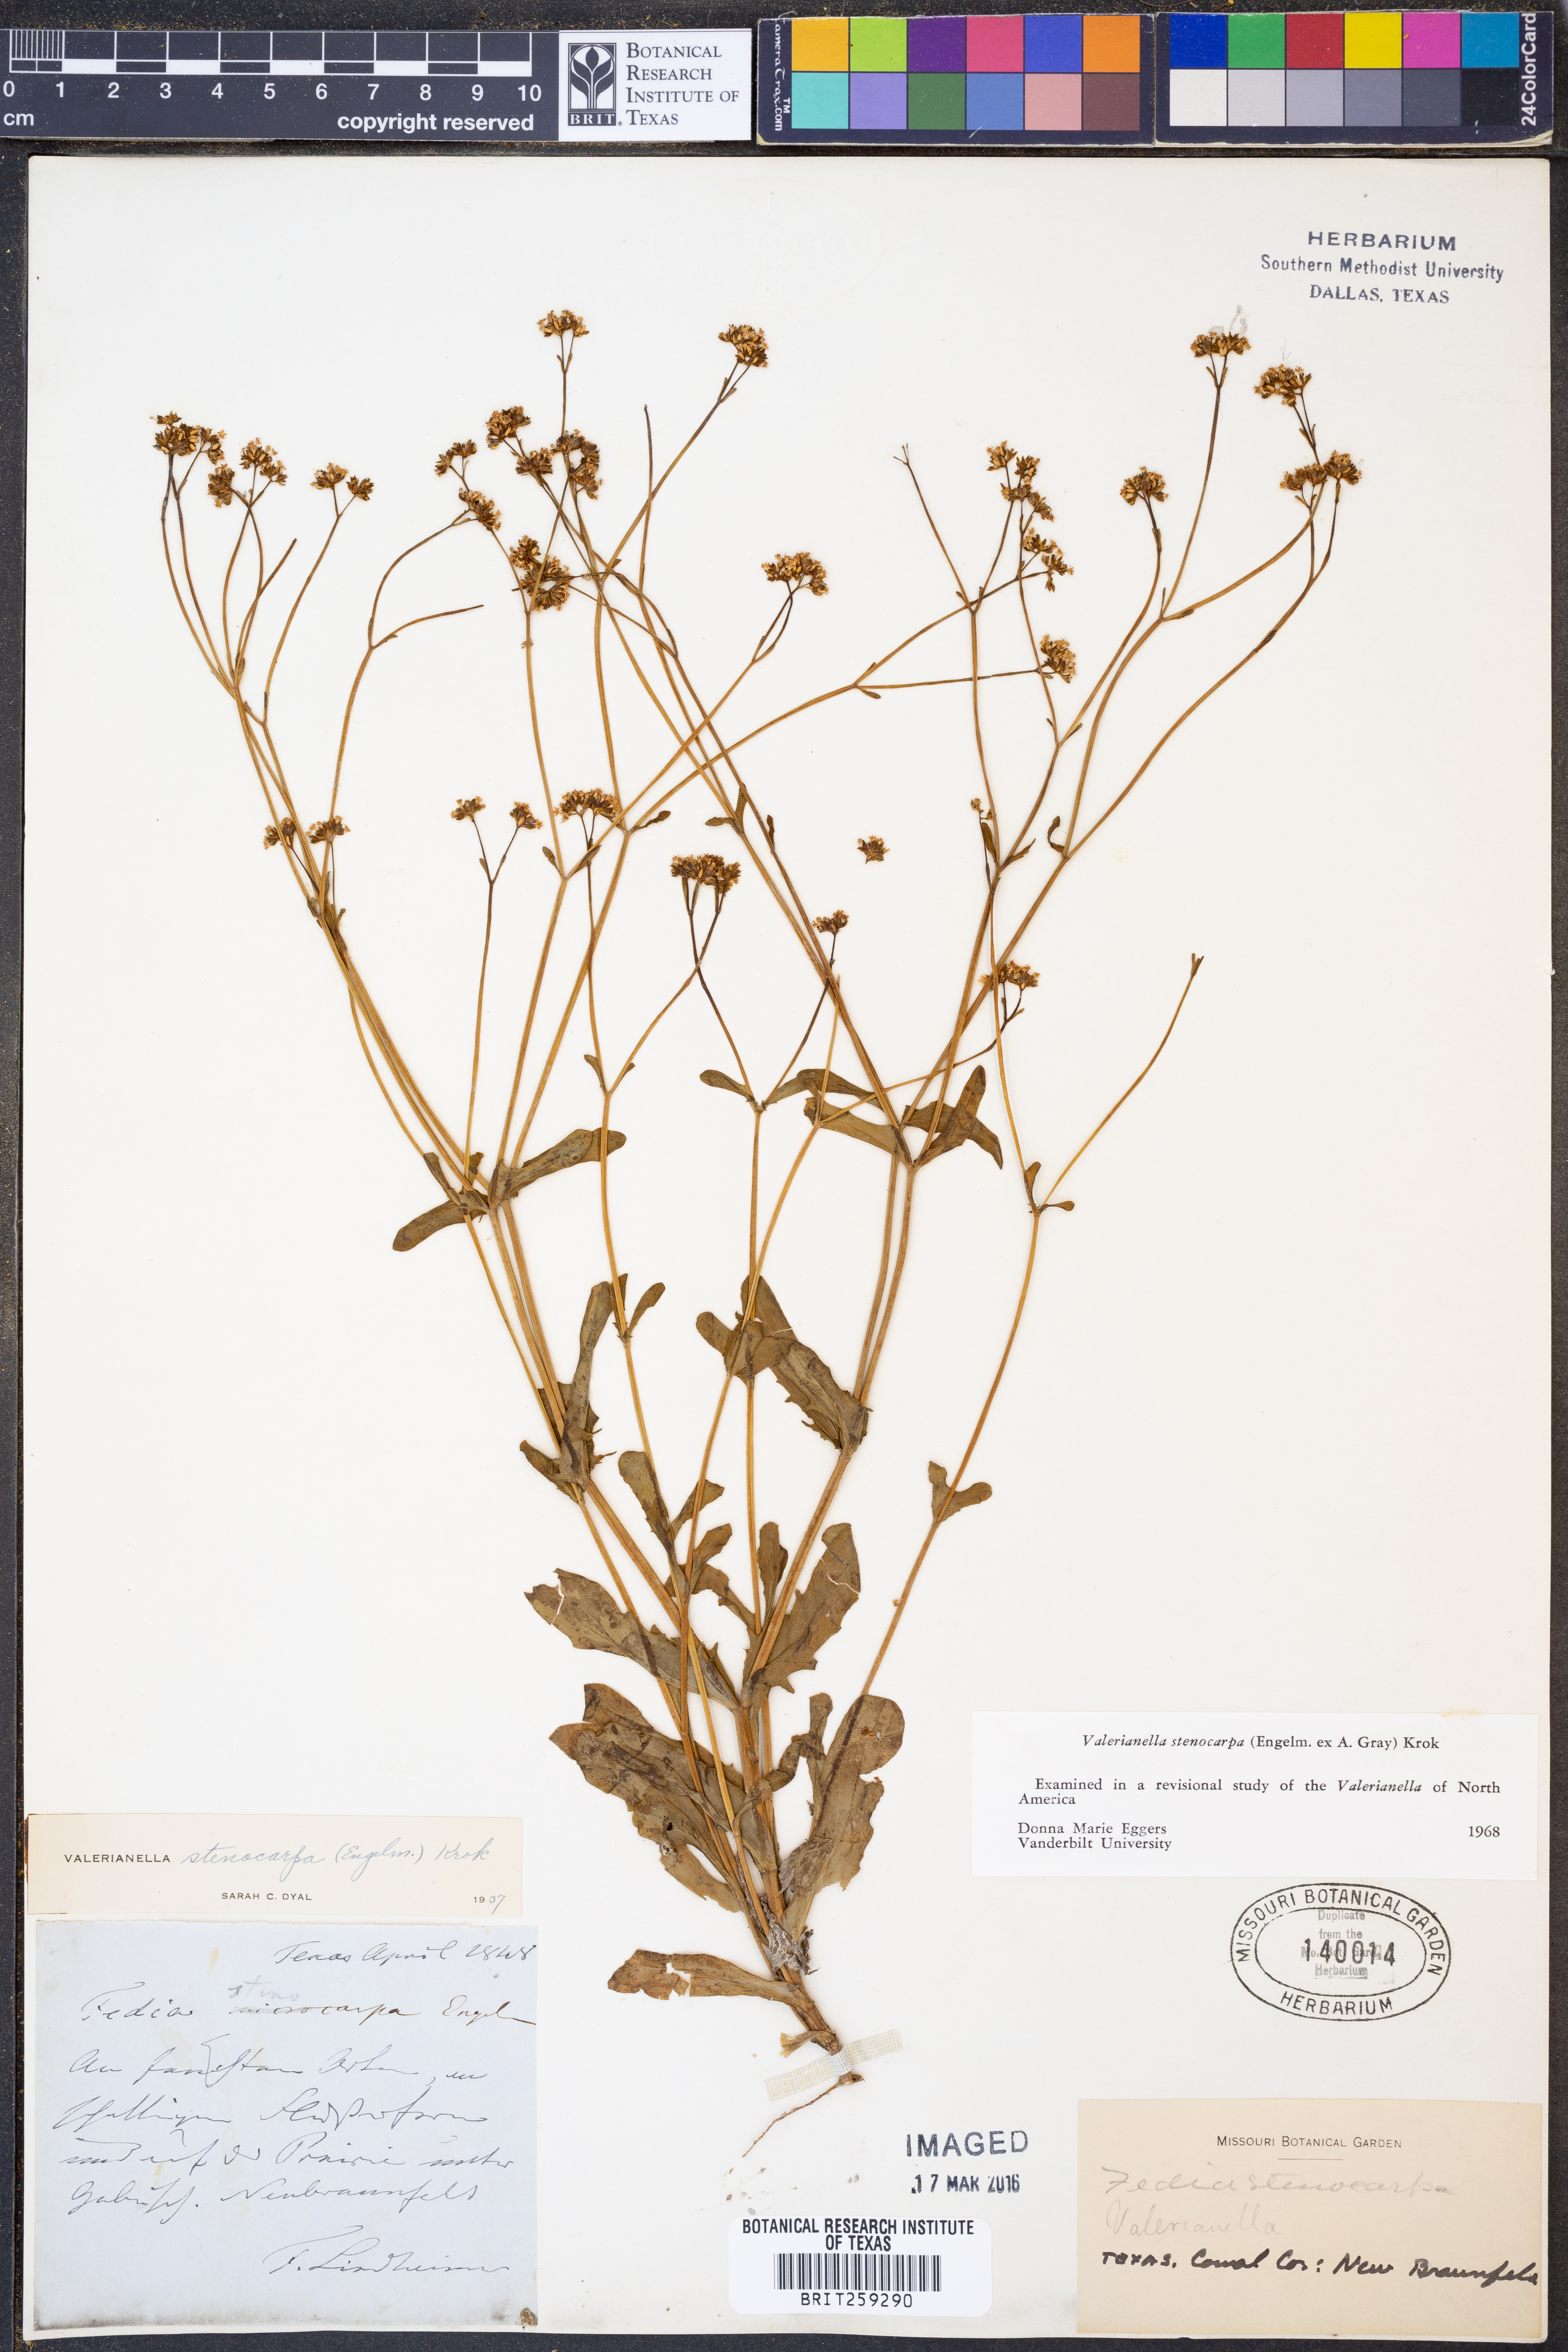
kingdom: Plantae
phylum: Tracheophyta
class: Magnoliopsida
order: Dipsacales
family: Caprifoliaceae
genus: Valerianella
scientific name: Valerianella stenocarpa
